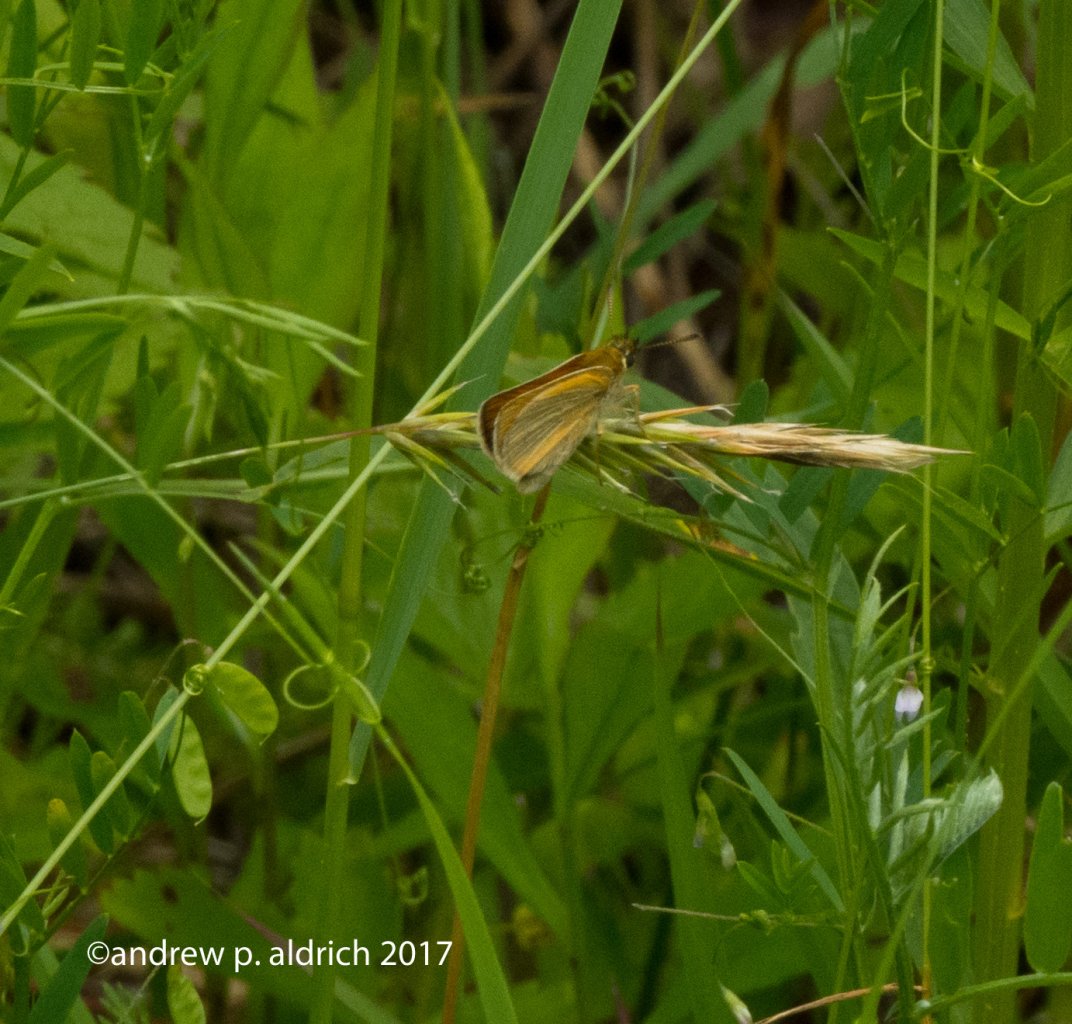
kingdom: Animalia
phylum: Arthropoda
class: Insecta
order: Lepidoptera
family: Hesperiidae
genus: Thymelicus
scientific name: Thymelicus lineola
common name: European Skipper
